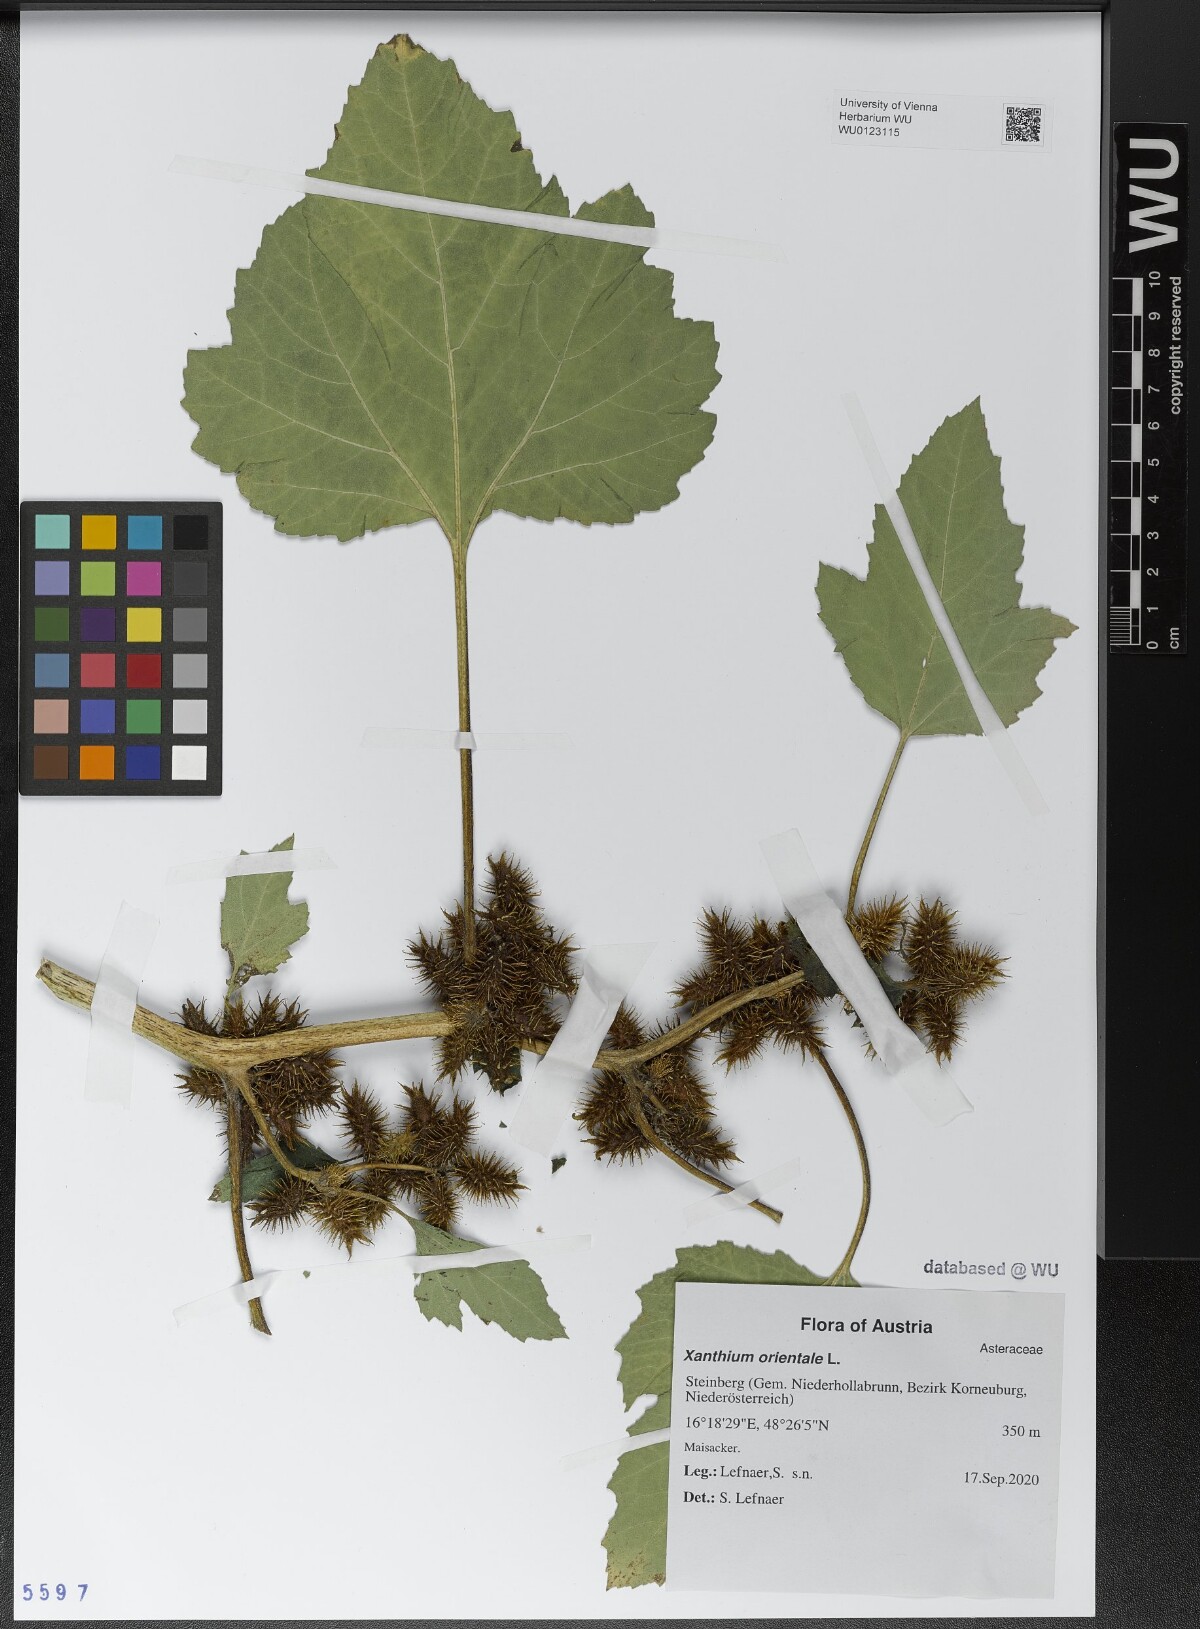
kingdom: Plantae
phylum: Tracheophyta
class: Magnoliopsida
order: Asterales
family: Asteraceae
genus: Xanthium
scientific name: Xanthium orientale
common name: Californian burr
